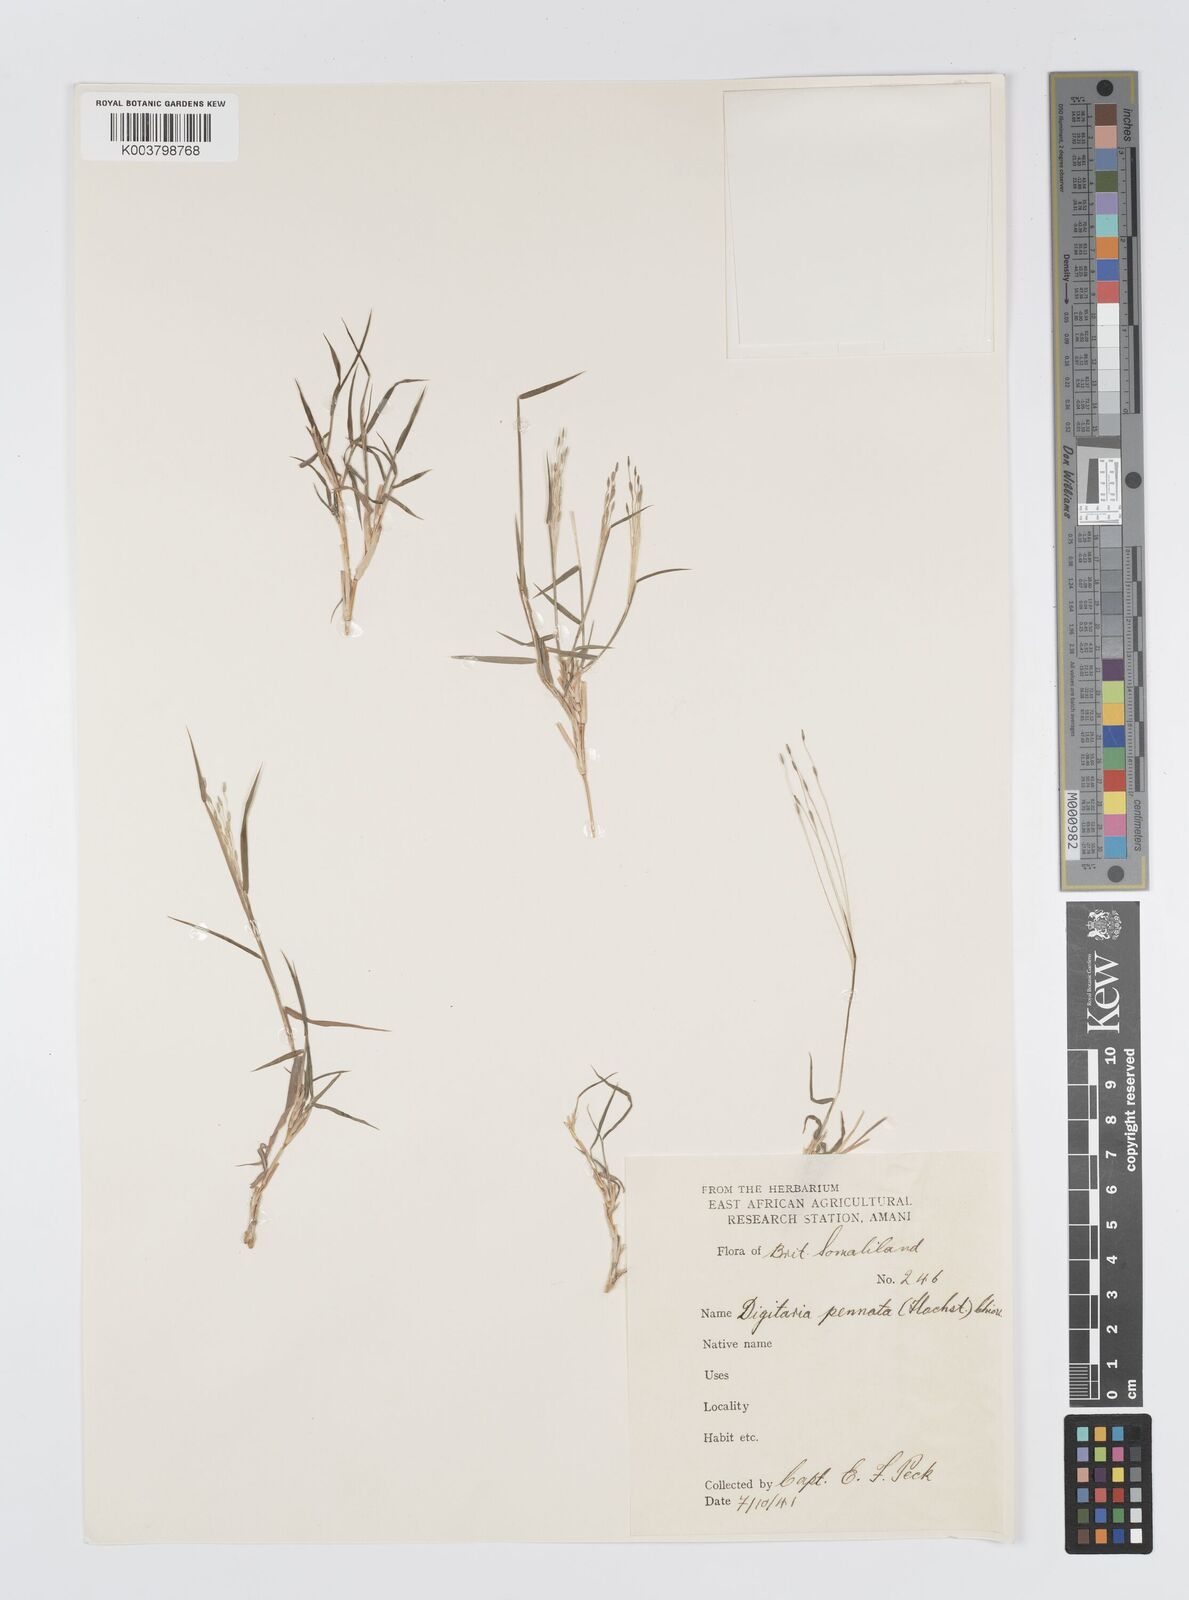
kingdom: Plantae
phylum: Tracheophyta
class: Liliopsida
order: Poales
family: Poaceae
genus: Digitaria
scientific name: Digitaria pennata
